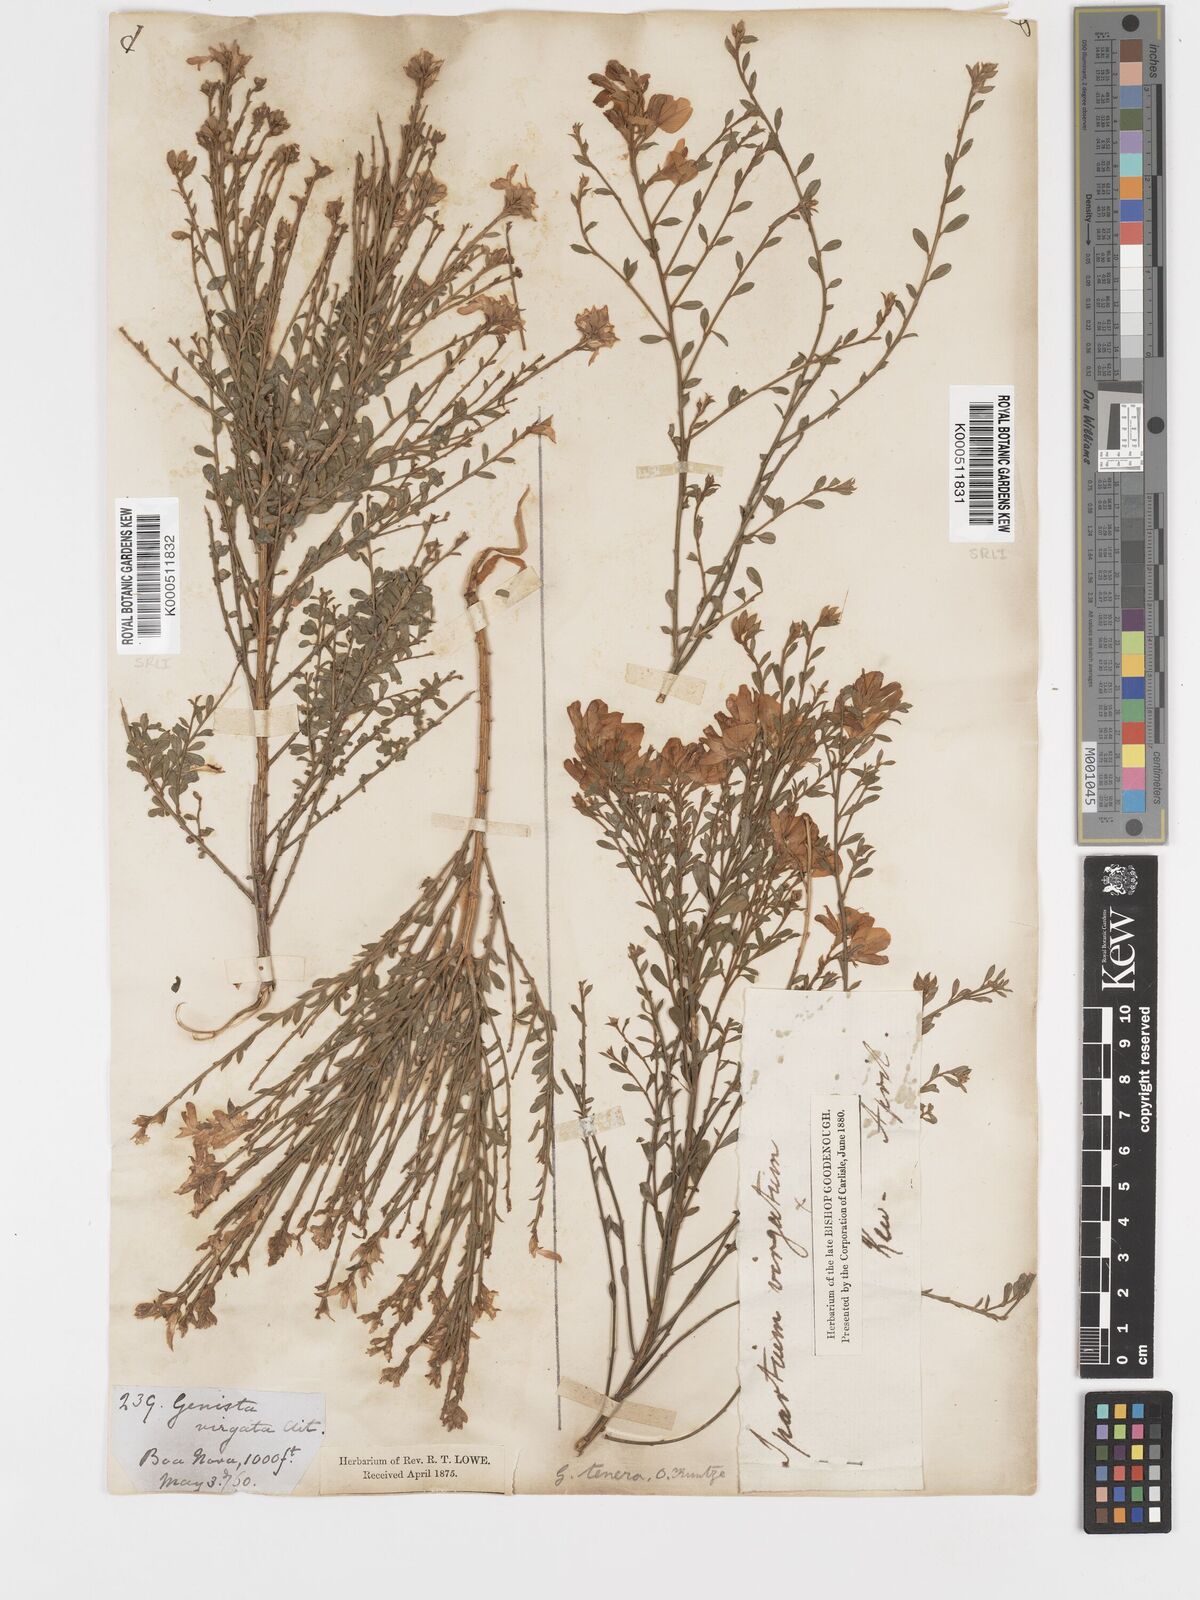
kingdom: Plantae
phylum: Tracheophyta
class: Magnoliopsida
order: Fabales
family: Fabaceae
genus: Genista
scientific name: Genista tenera
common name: Madeira broom
